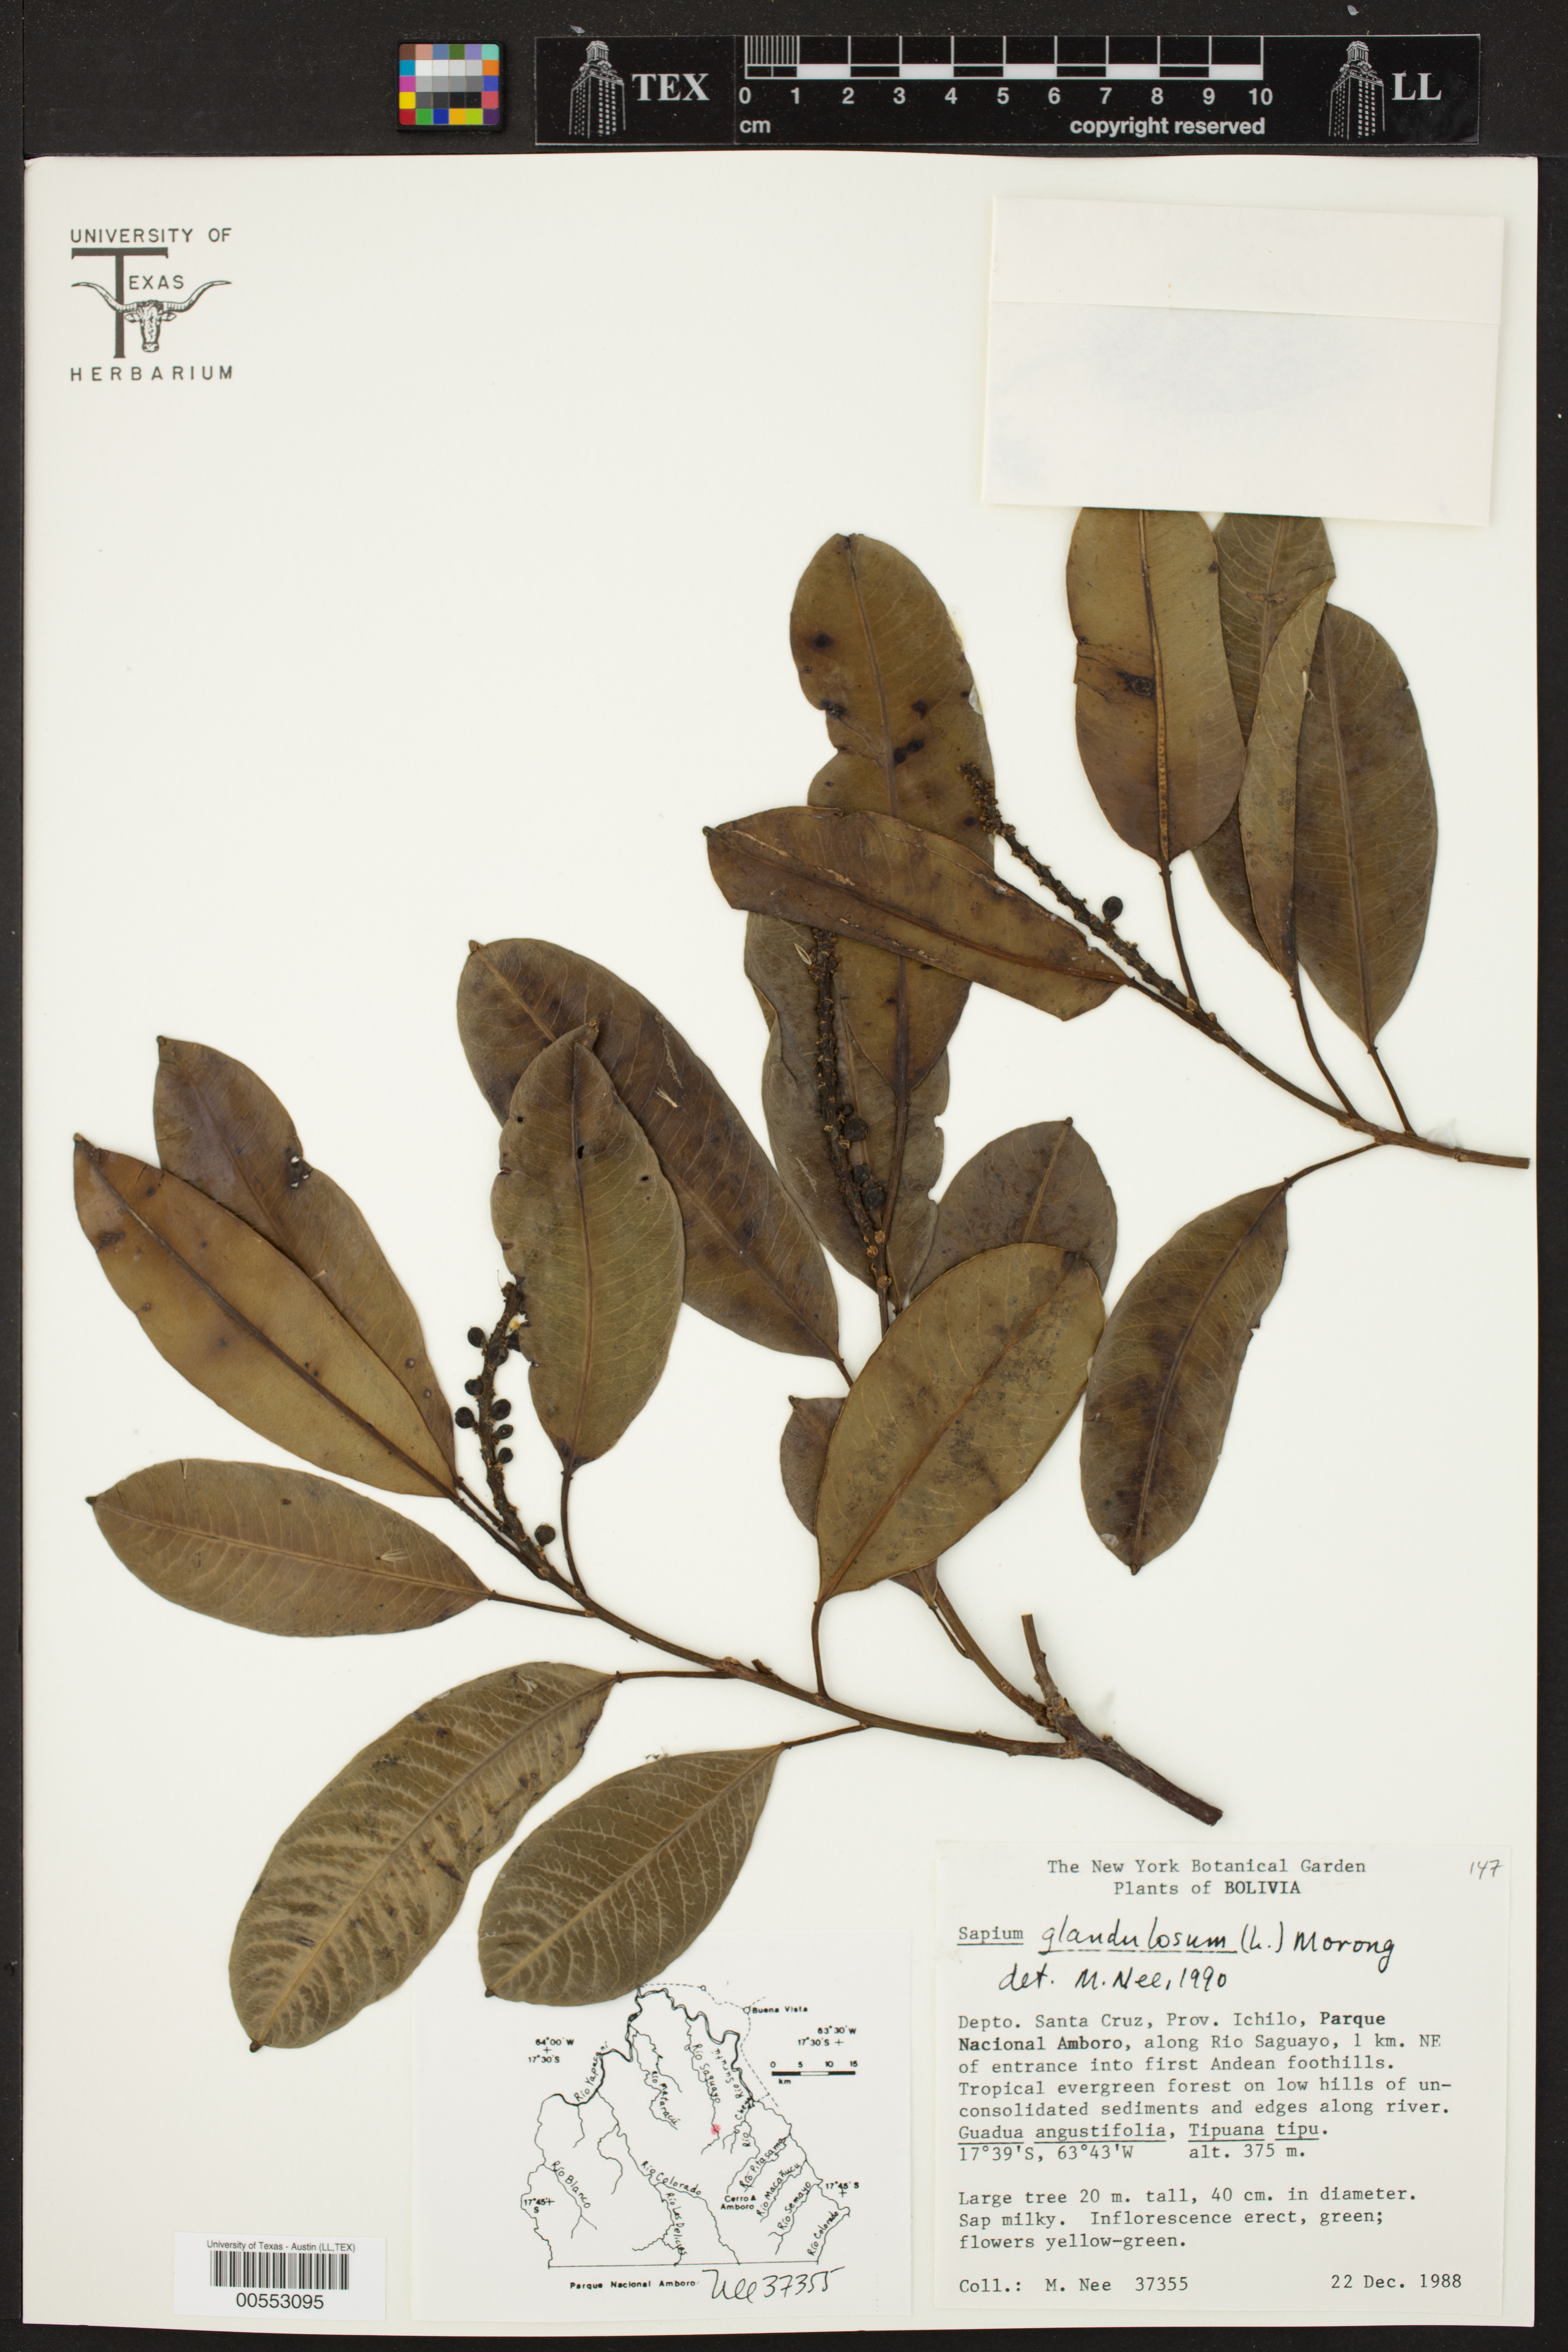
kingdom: Plantae
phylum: Tracheophyta
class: Magnoliopsida
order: Malpighiales
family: Euphorbiaceae
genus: Sapium
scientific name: Sapium glandulosum
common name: Milktree
